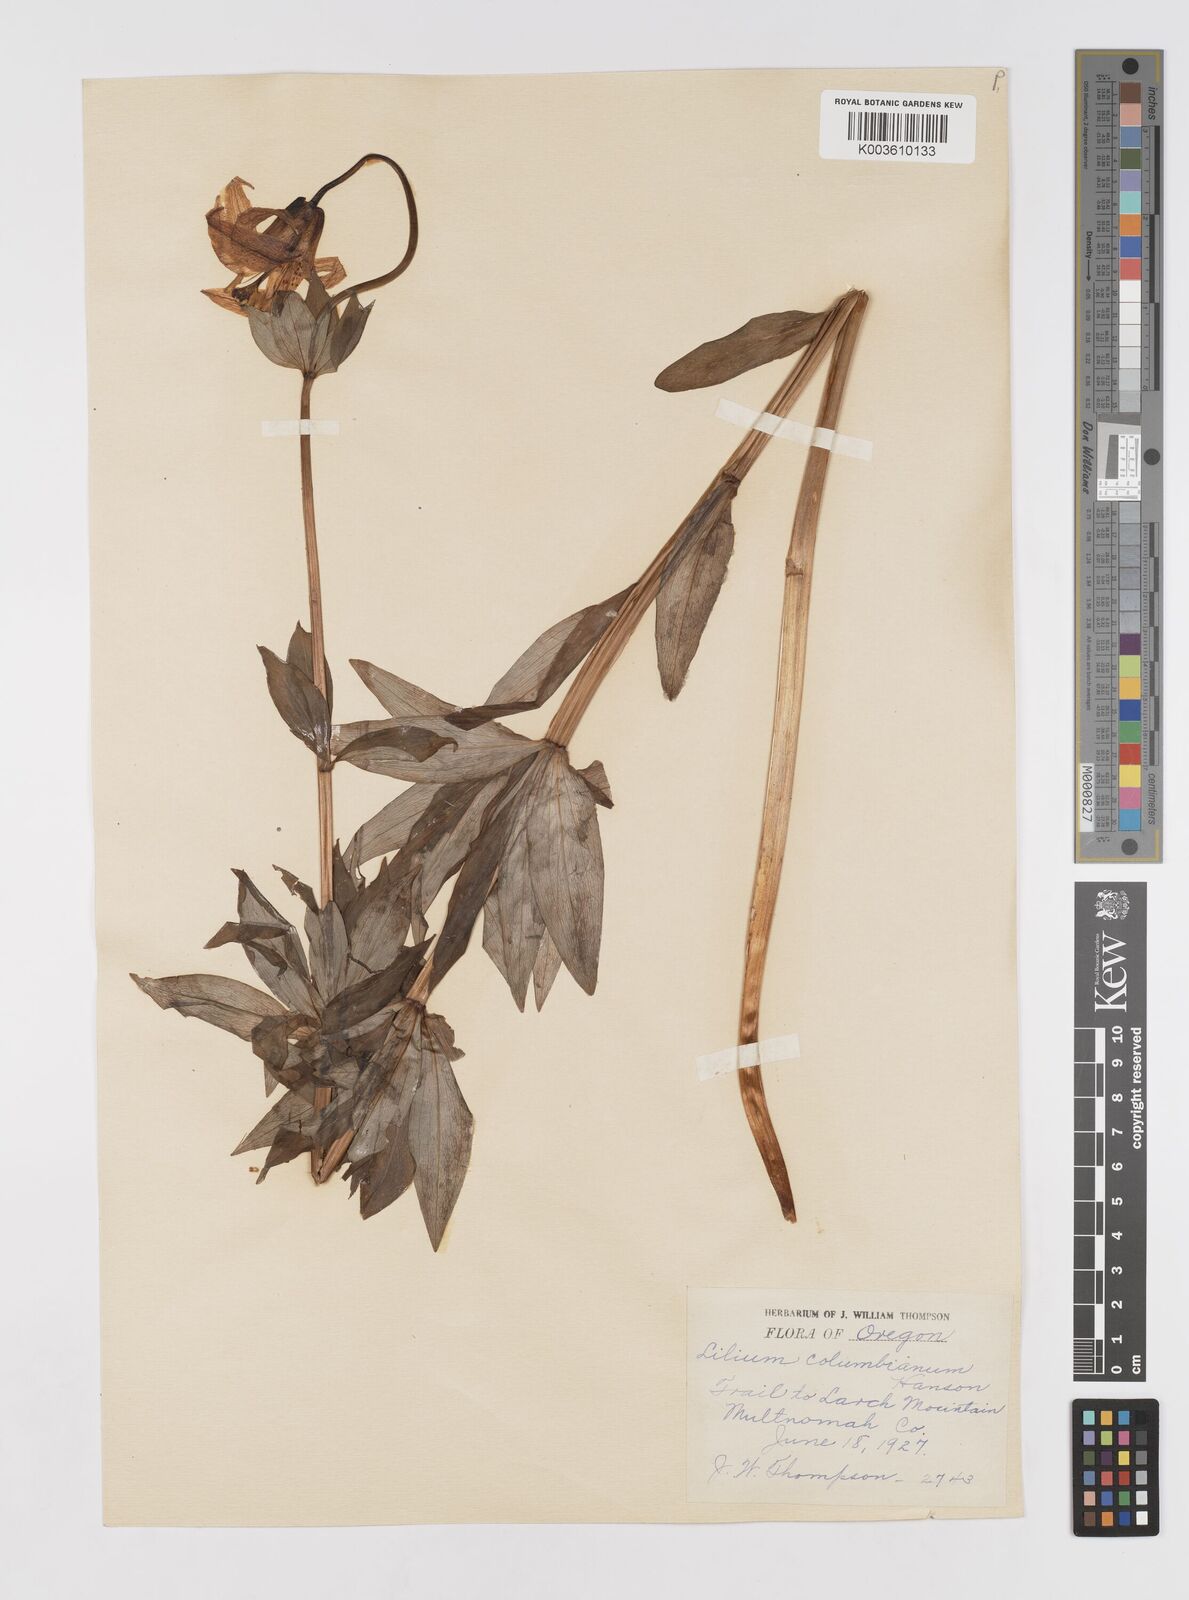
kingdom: Plantae
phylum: Tracheophyta
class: Liliopsida
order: Liliales
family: Liliaceae
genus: Lilium
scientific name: Lilium columbianum
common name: Columbia lily
